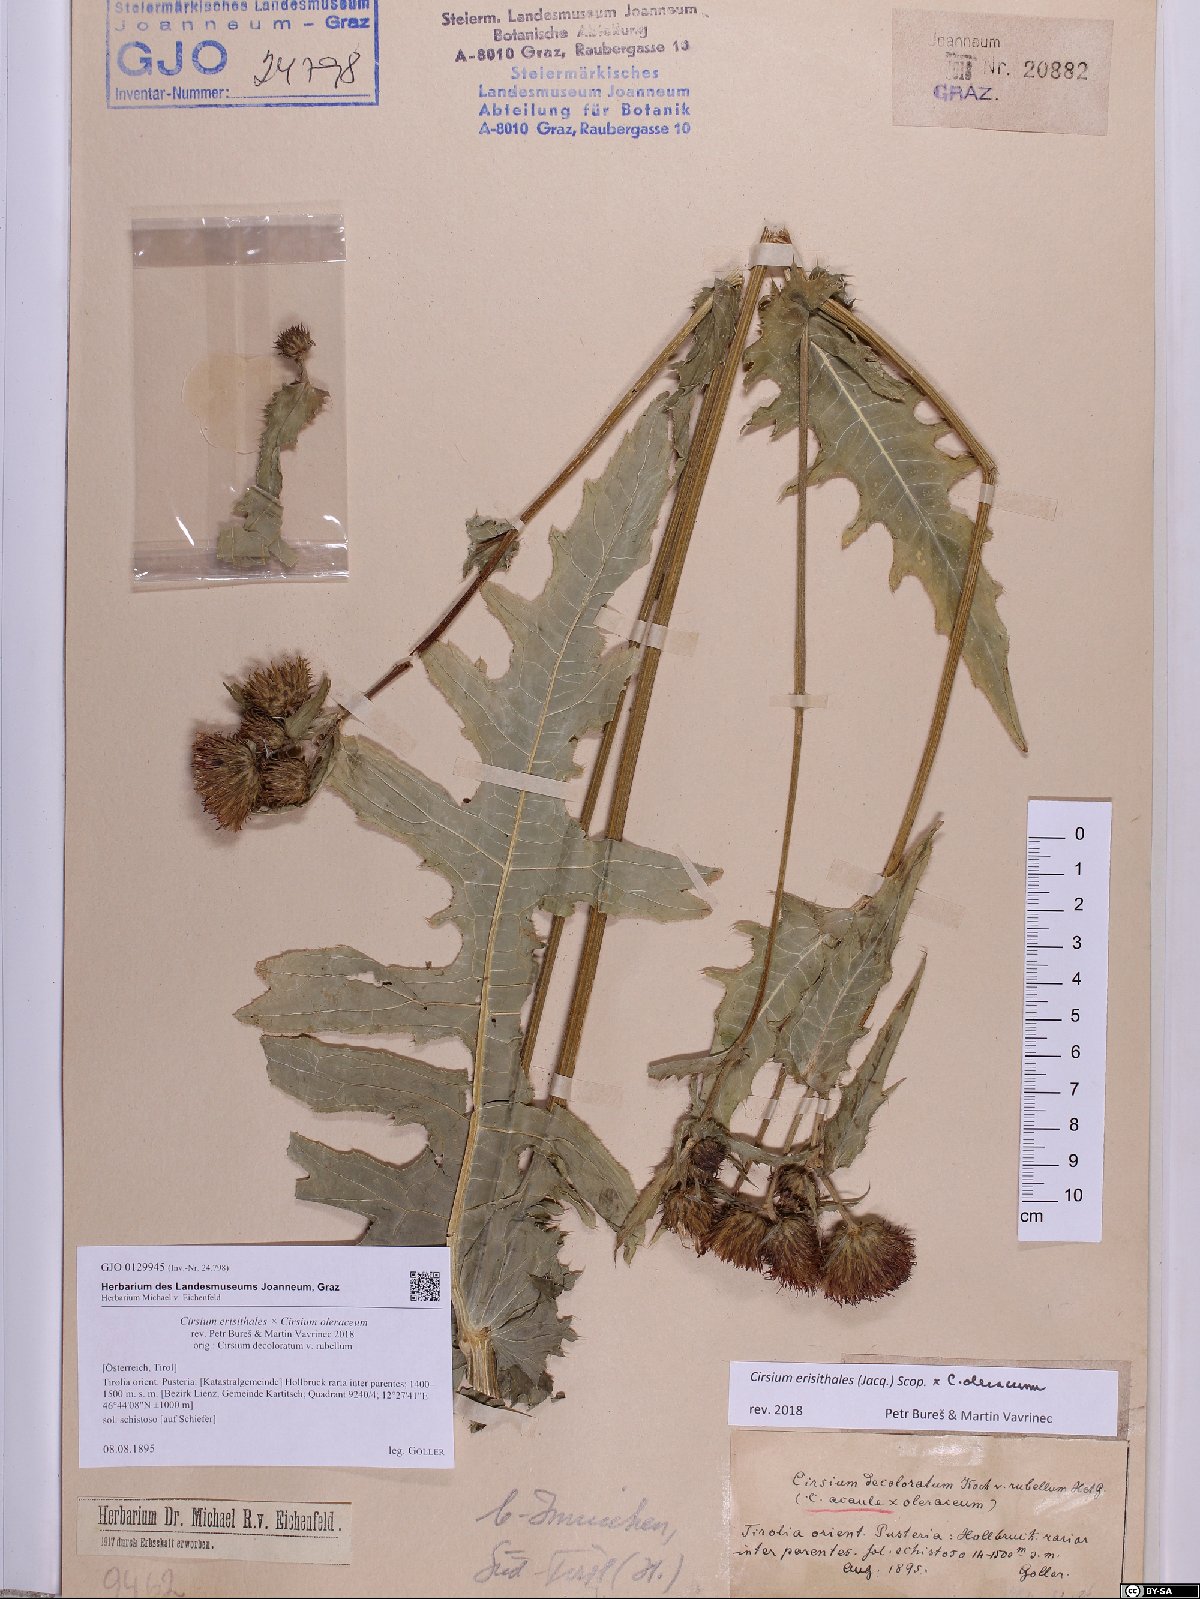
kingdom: Plantae
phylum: Tracheophyta
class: Magnoliopsida
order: Asterales
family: Asteraceae
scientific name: Asteraceae
